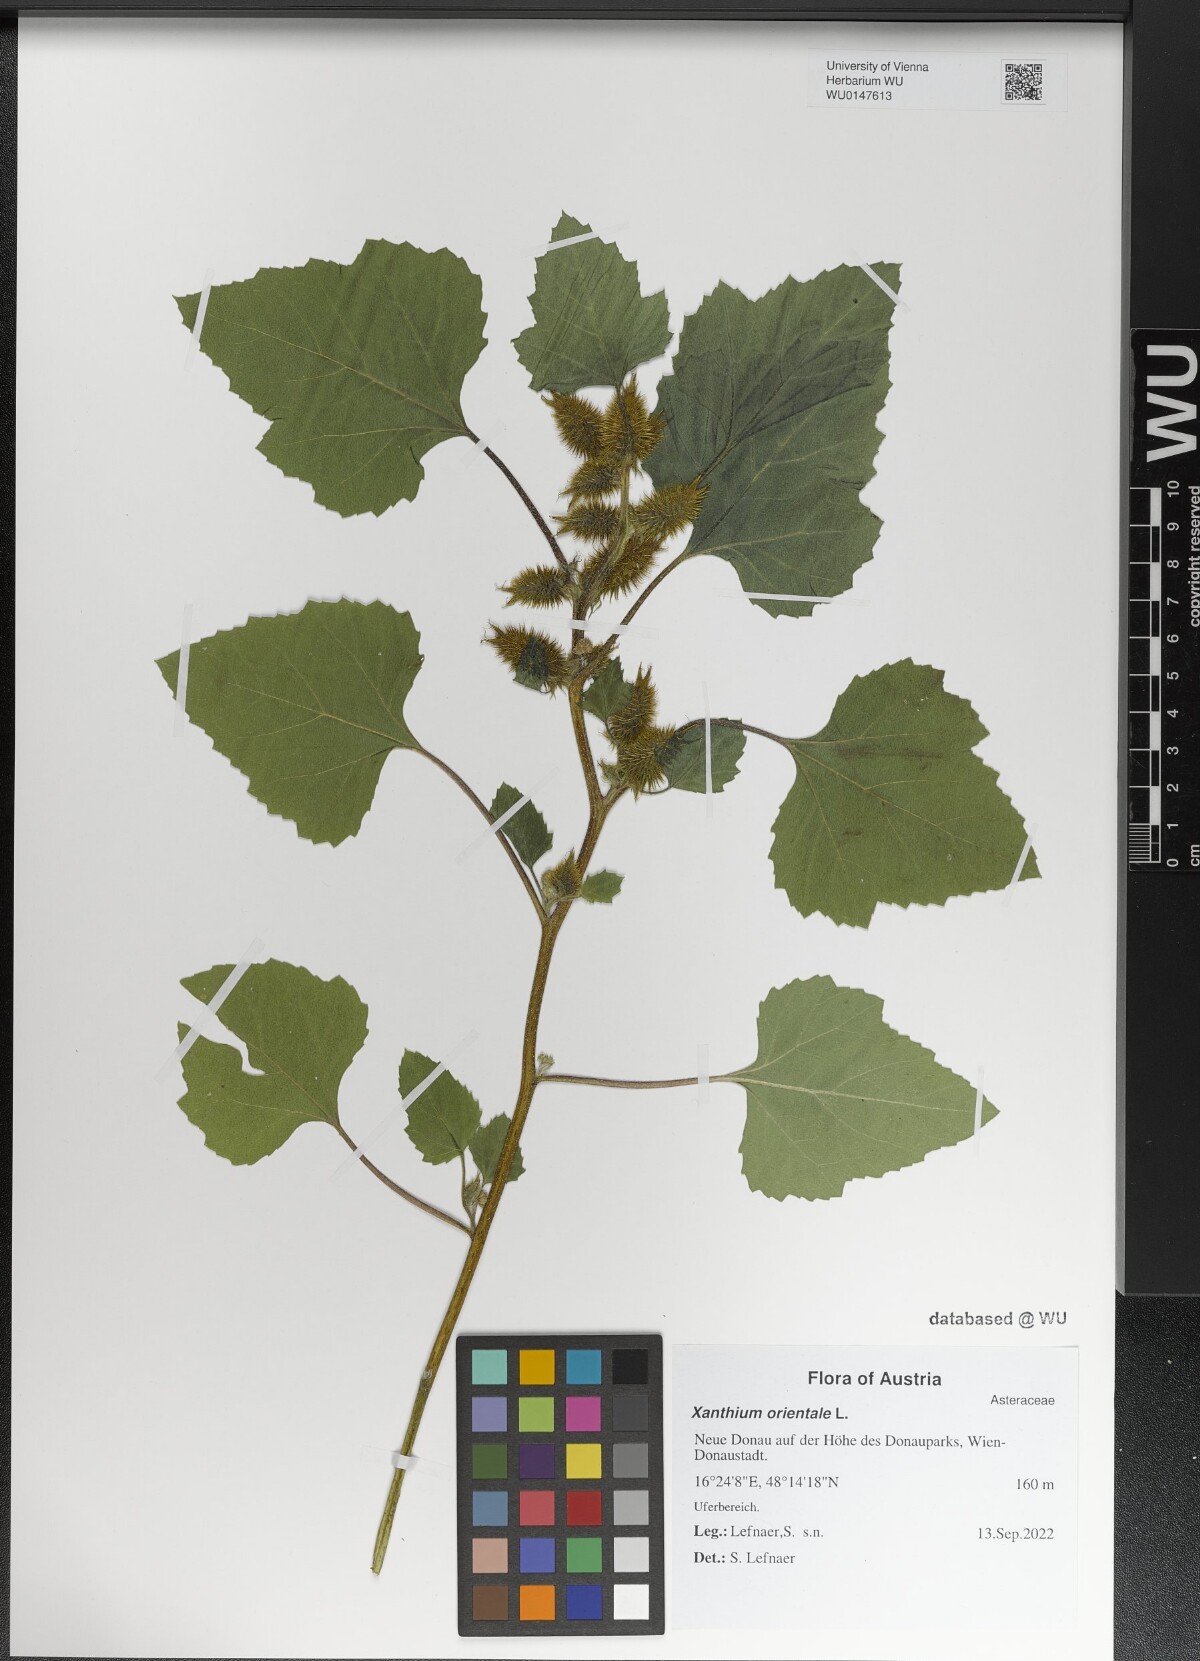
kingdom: Plantae
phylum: Tracheophyta
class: Magnoliopsida
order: Asterales
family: Asteraceae
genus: Xanthium
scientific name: Xanthium orientale
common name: Californian burr
